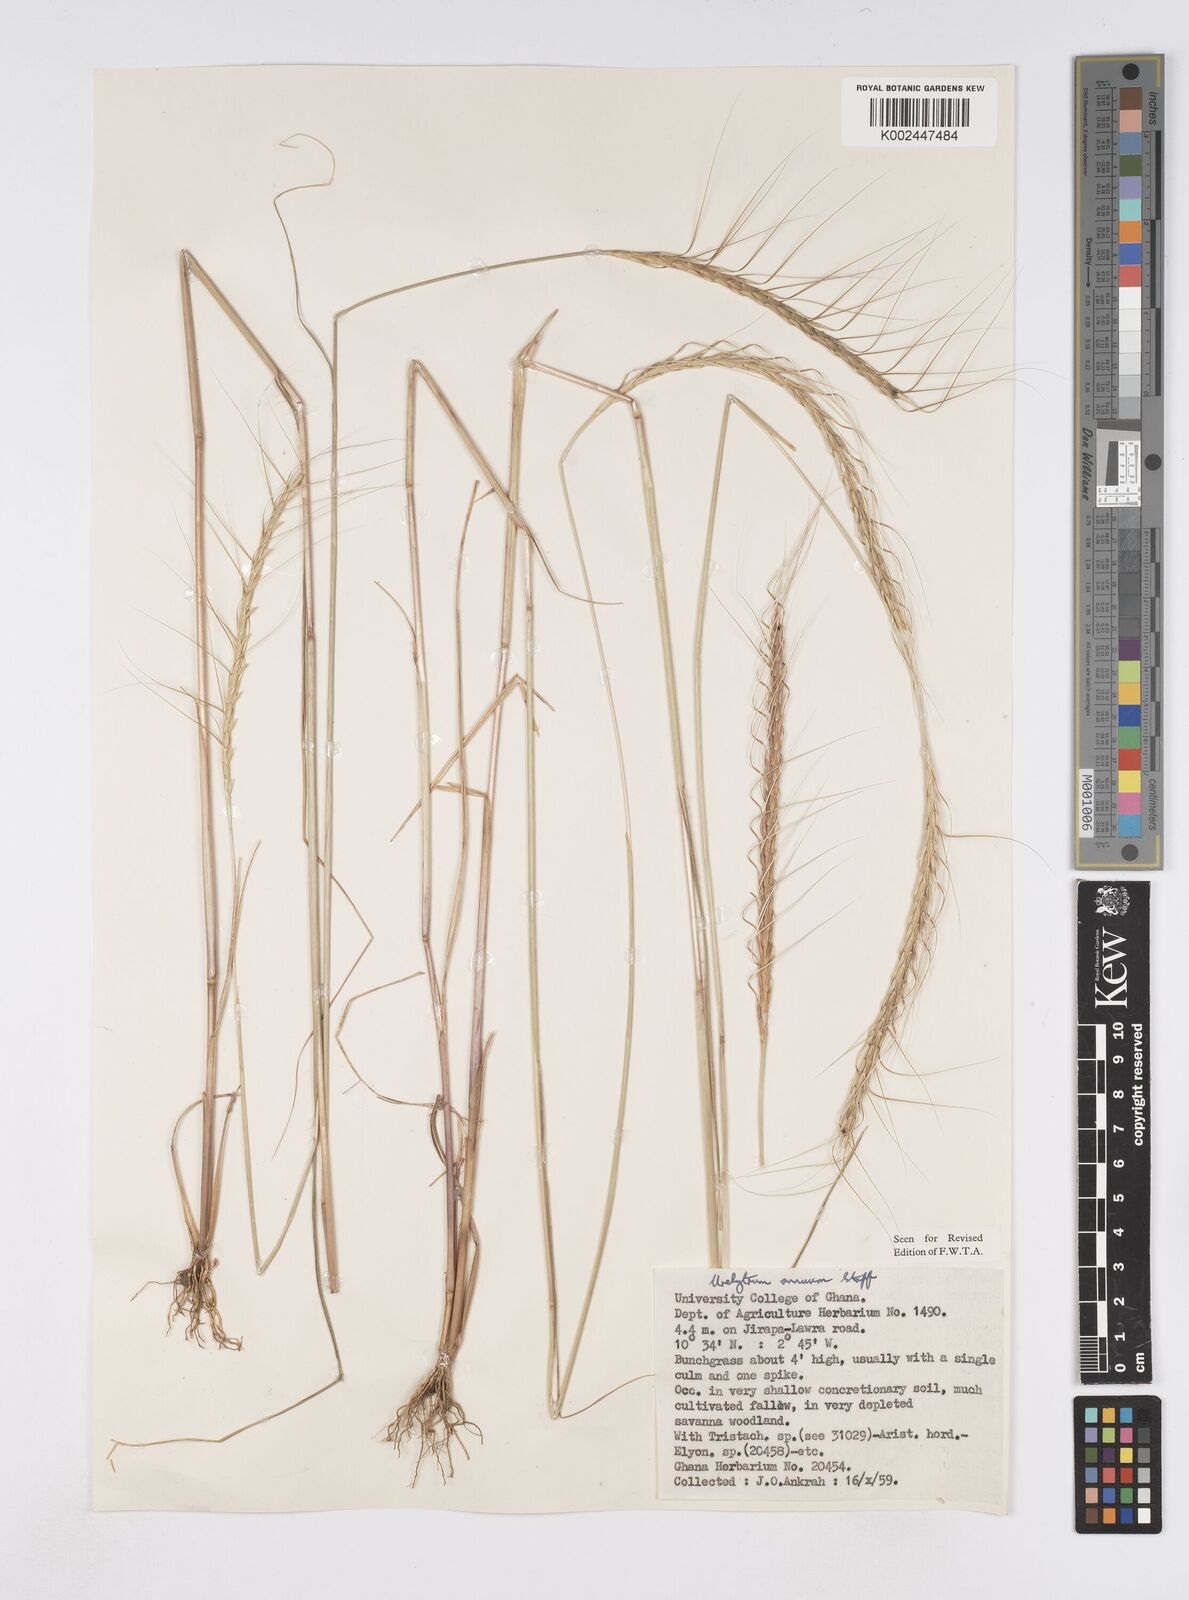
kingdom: Plantae
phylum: Tracheophyta
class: Liliopsida
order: Poales
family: Poaceae
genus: Urelytrum
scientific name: Urelytrum annuum
